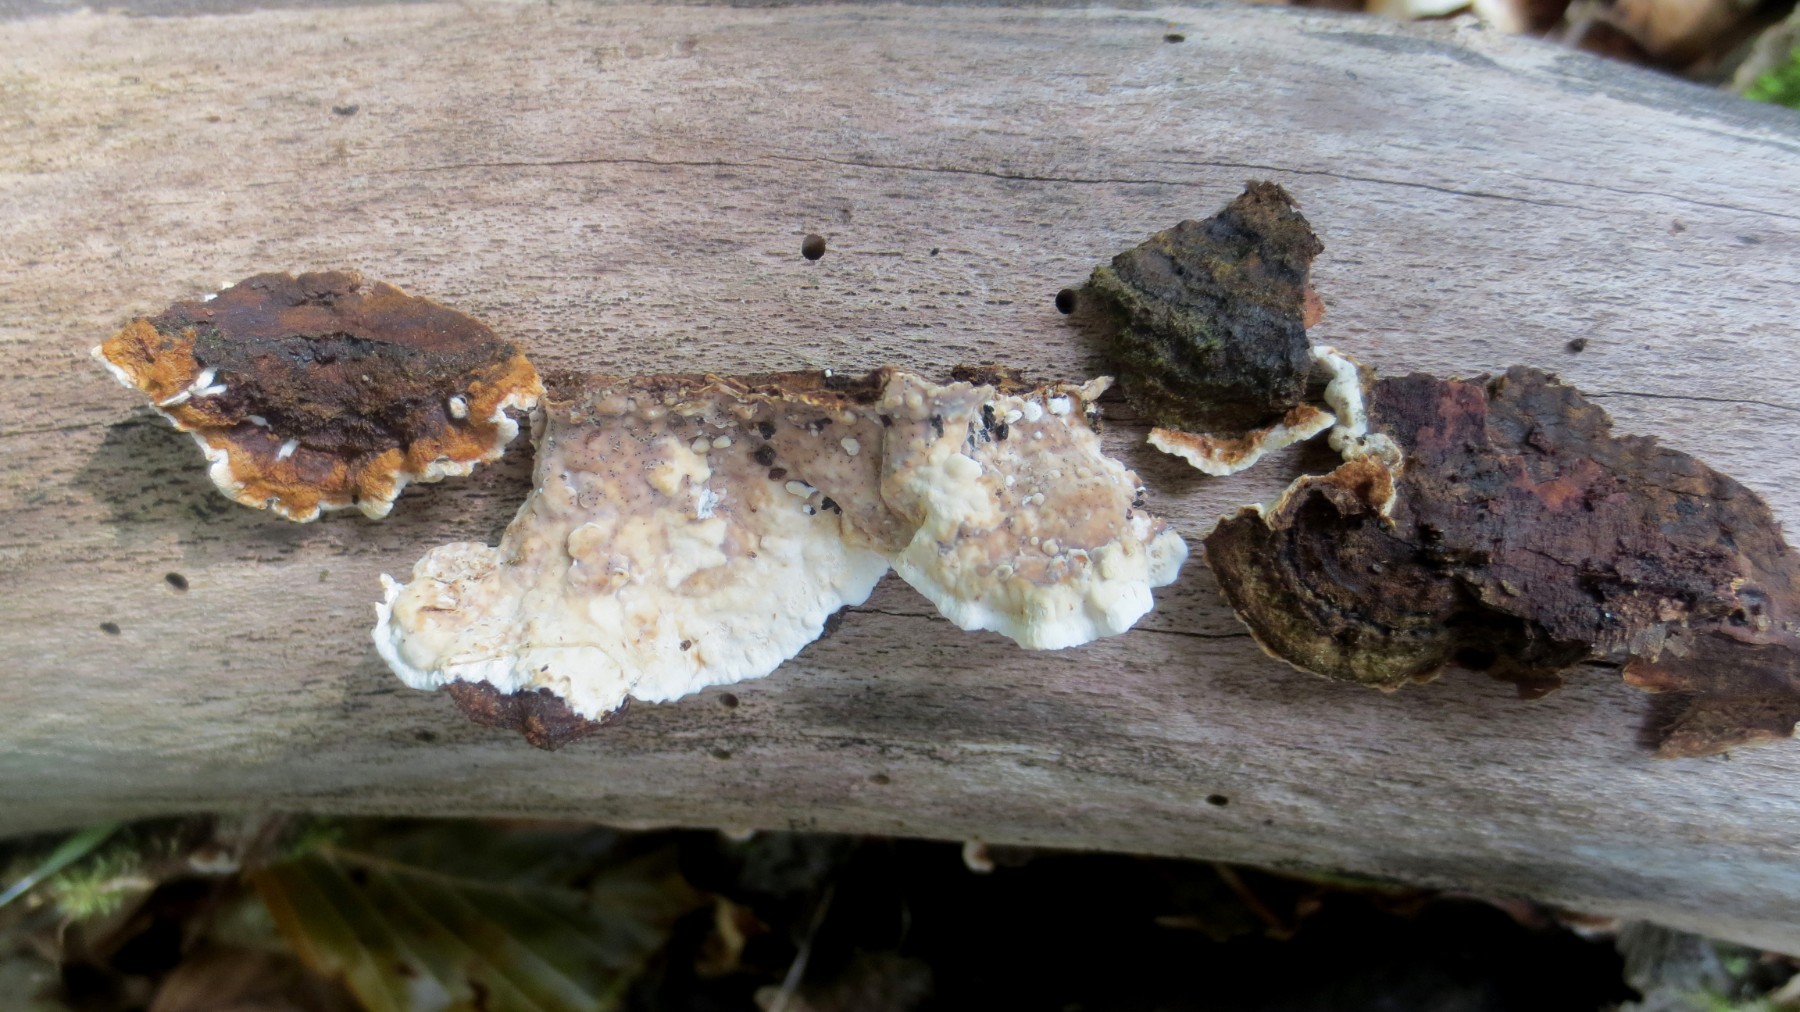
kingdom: Fungi
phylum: Basidiomycota
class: Agaricomycetes
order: Russulales
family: Hericiaceae
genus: Laxitextum
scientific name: Laxitextum bicolor
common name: tvefarvet filtskind
